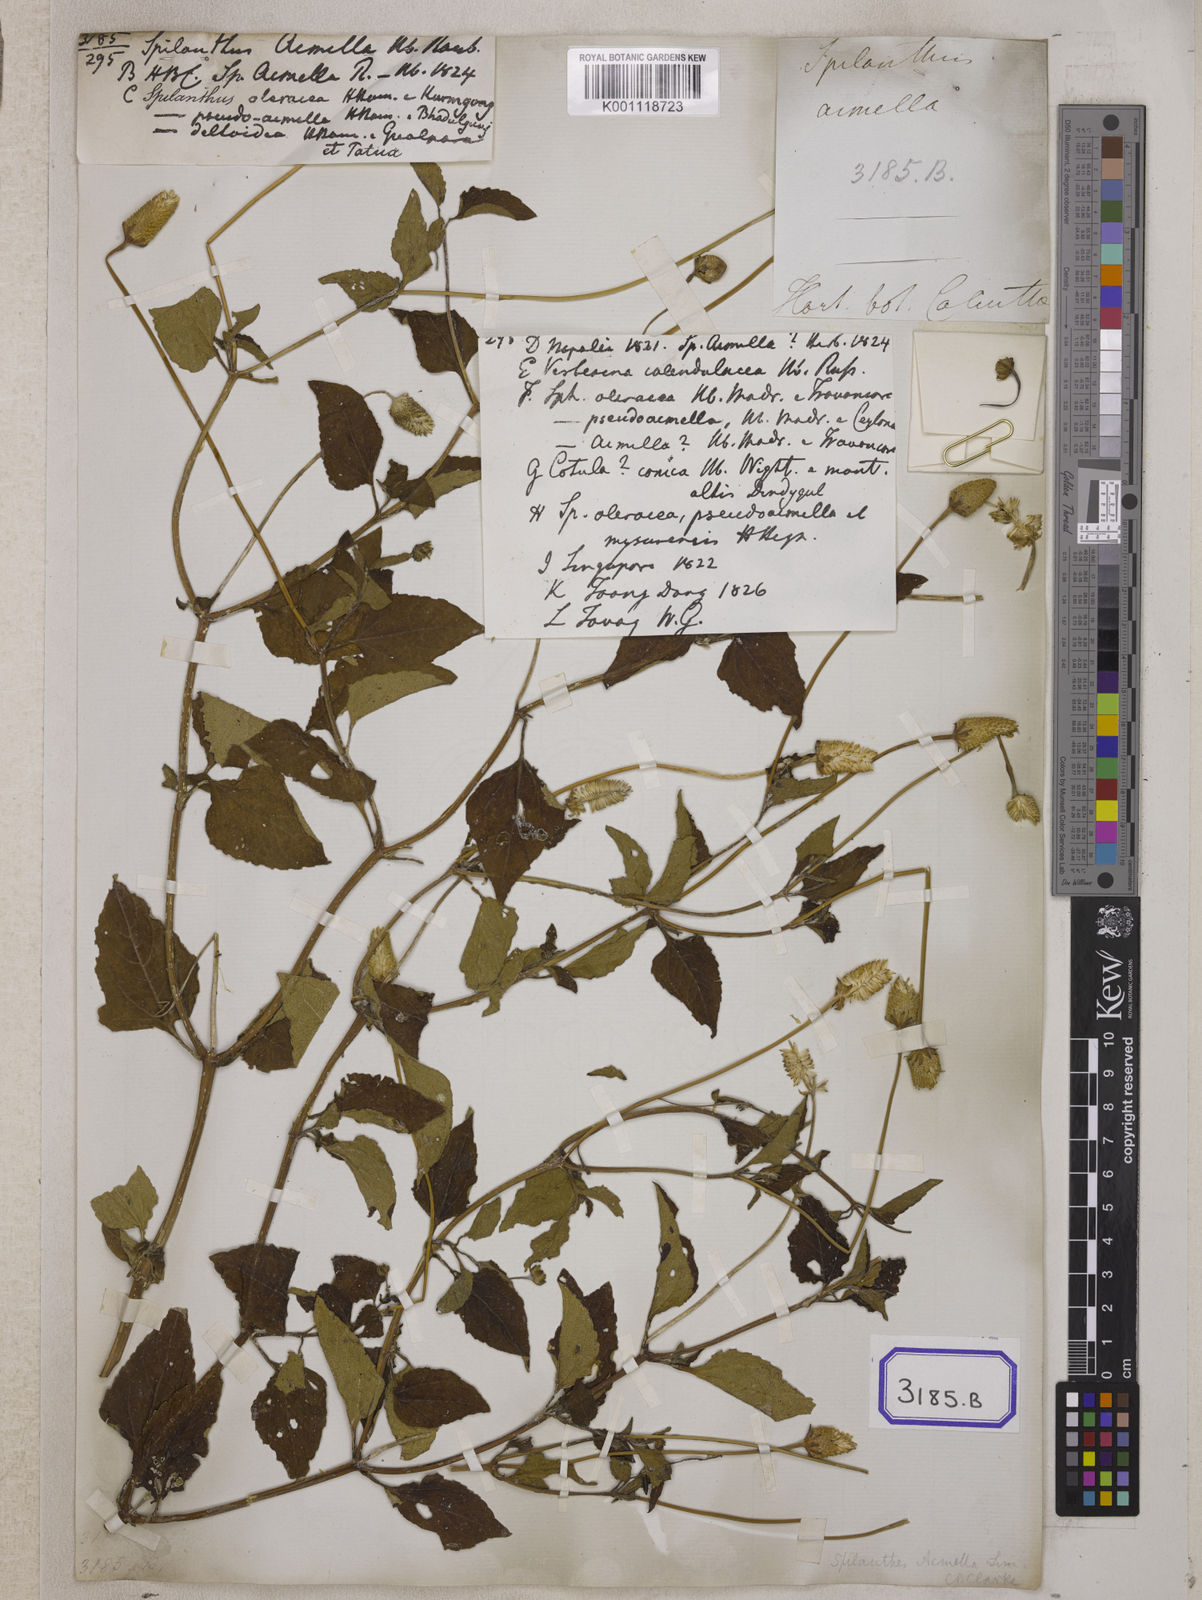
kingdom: Plantae
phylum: Tracheophyta
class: Magnoliopsida
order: Asterales
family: Asteraceae
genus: Blainvillea
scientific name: Blainvillea acmella
